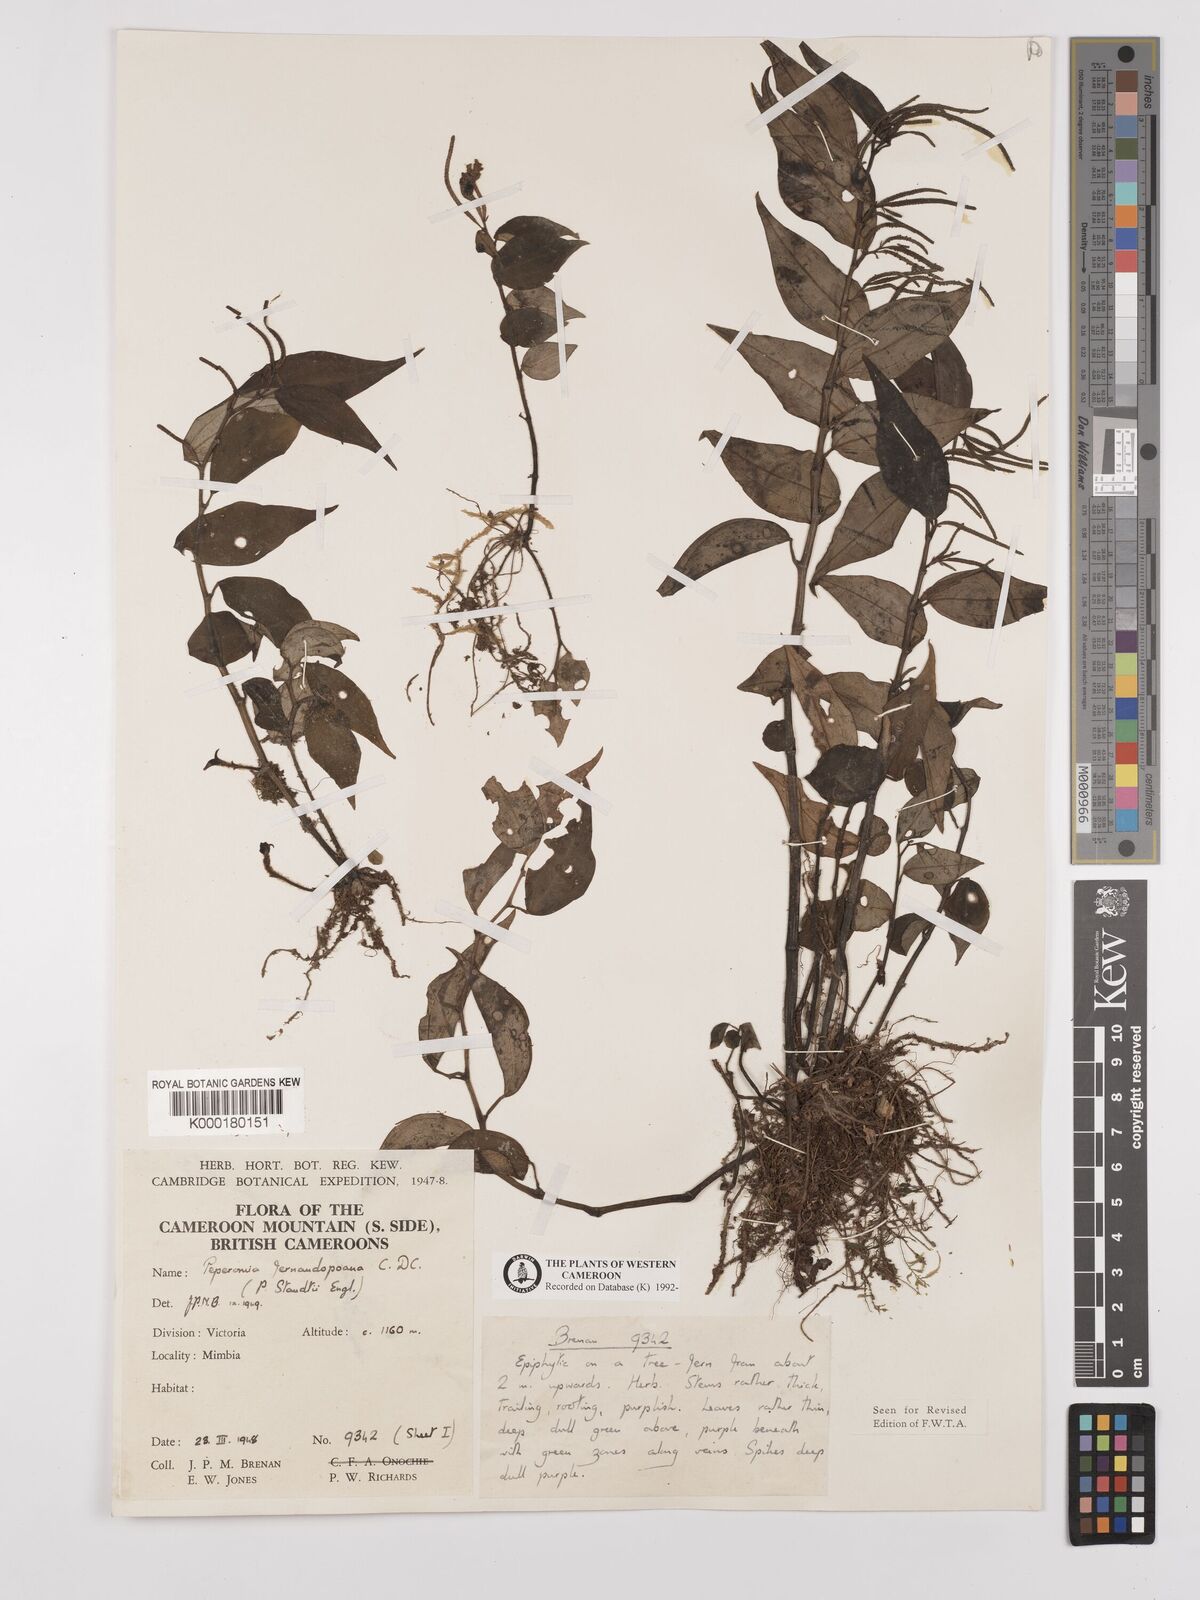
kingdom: Plantae
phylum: Tracheophyta
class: Magnoliopsida
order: Piperales
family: Piperaceae
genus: Peperomia
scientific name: Peperomia fernandopoiana
